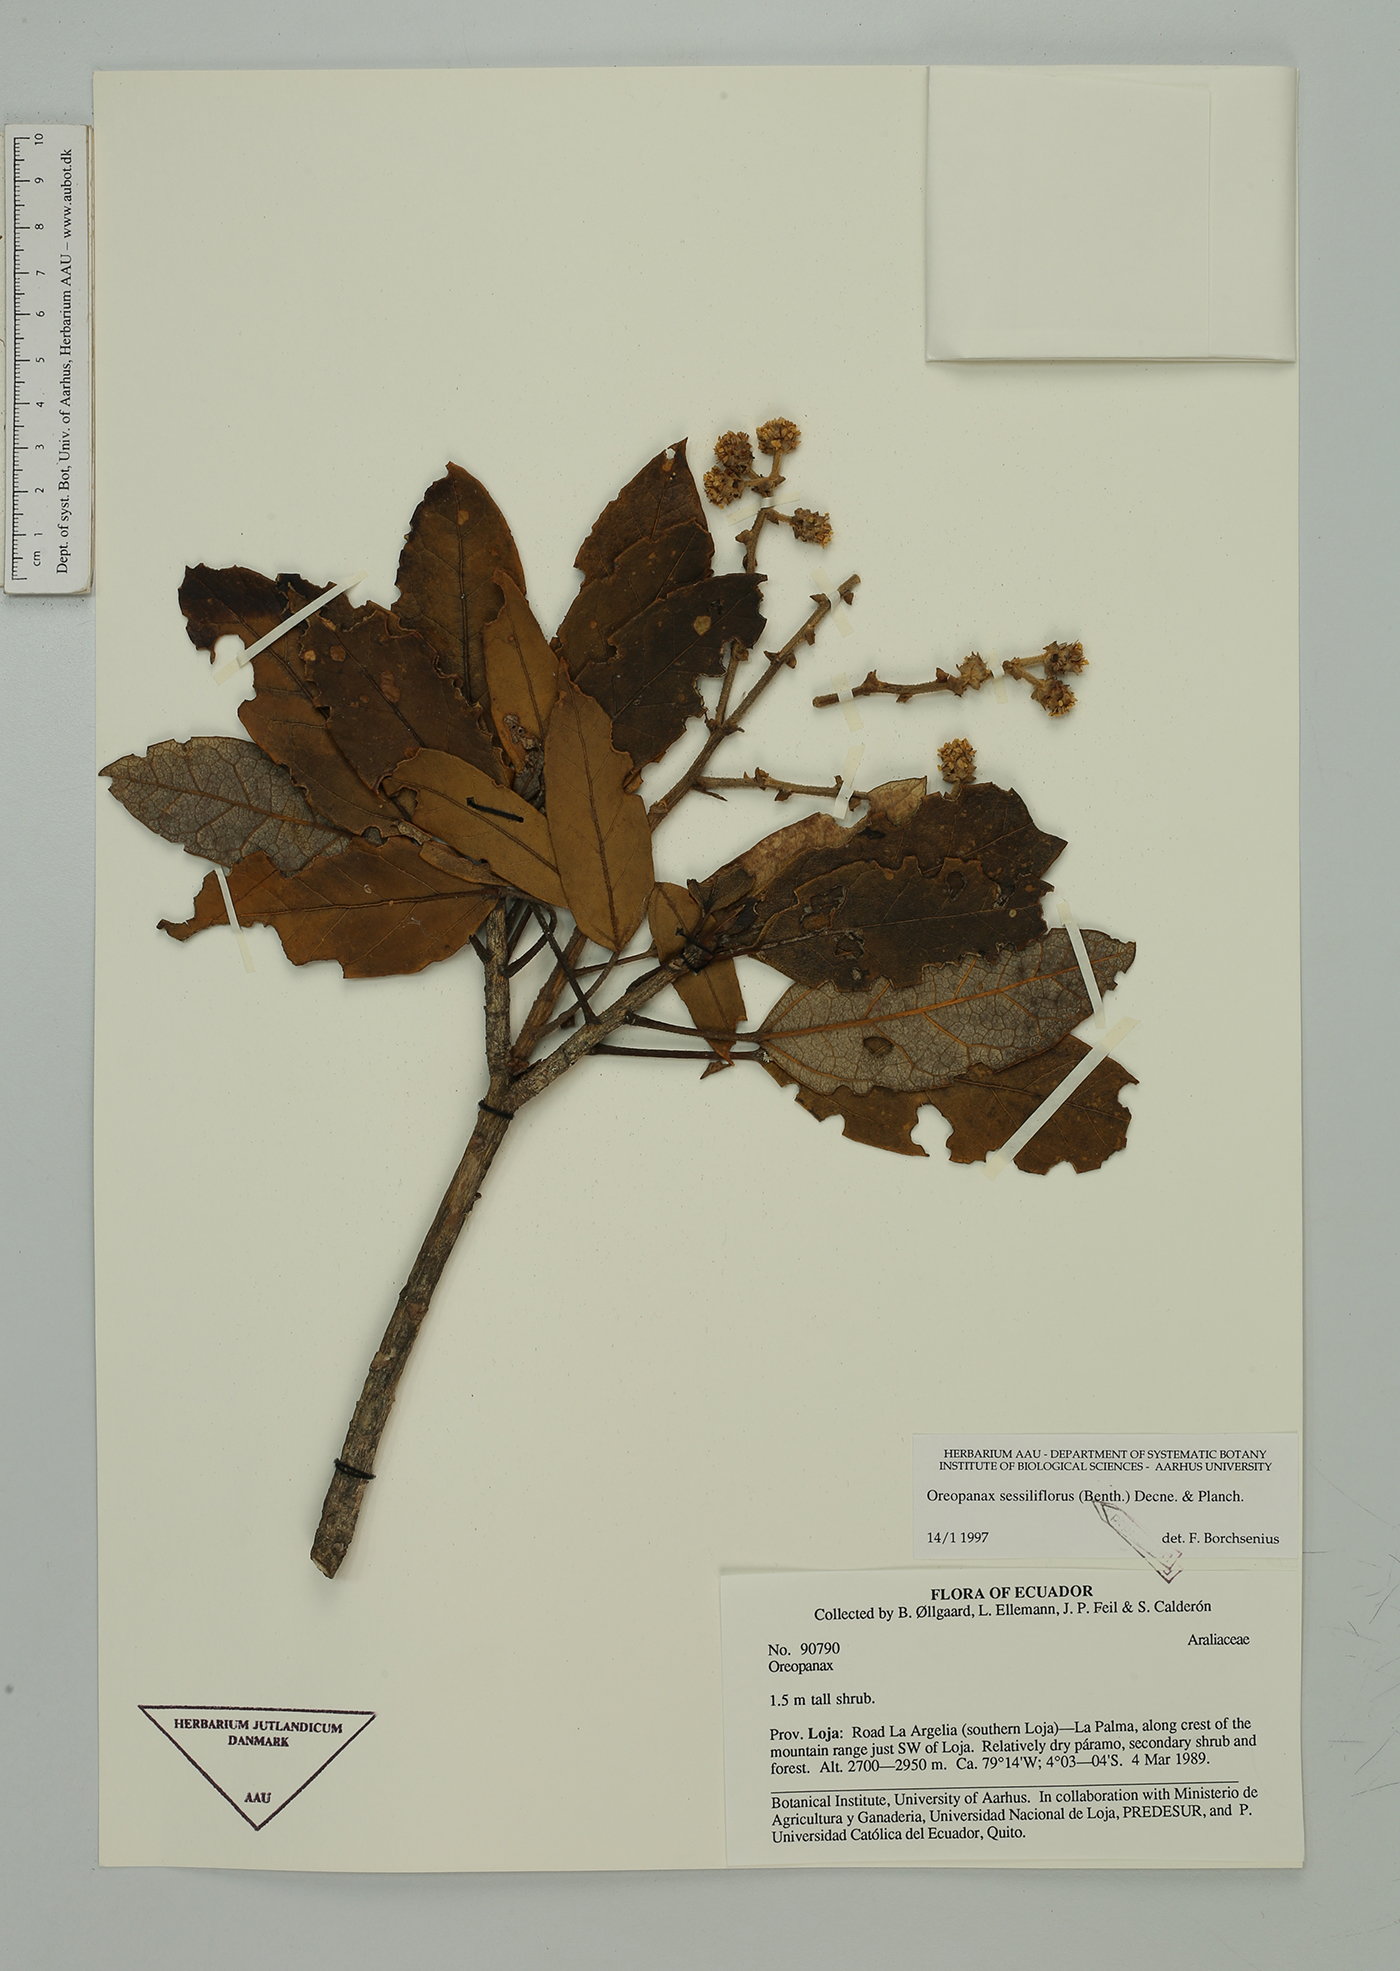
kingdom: Plantae
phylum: Tracheophyta
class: Magnoliopsida
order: Apiales
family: Araliaceae
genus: Oreopanax
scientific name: Oreopanax sessiliflorus
